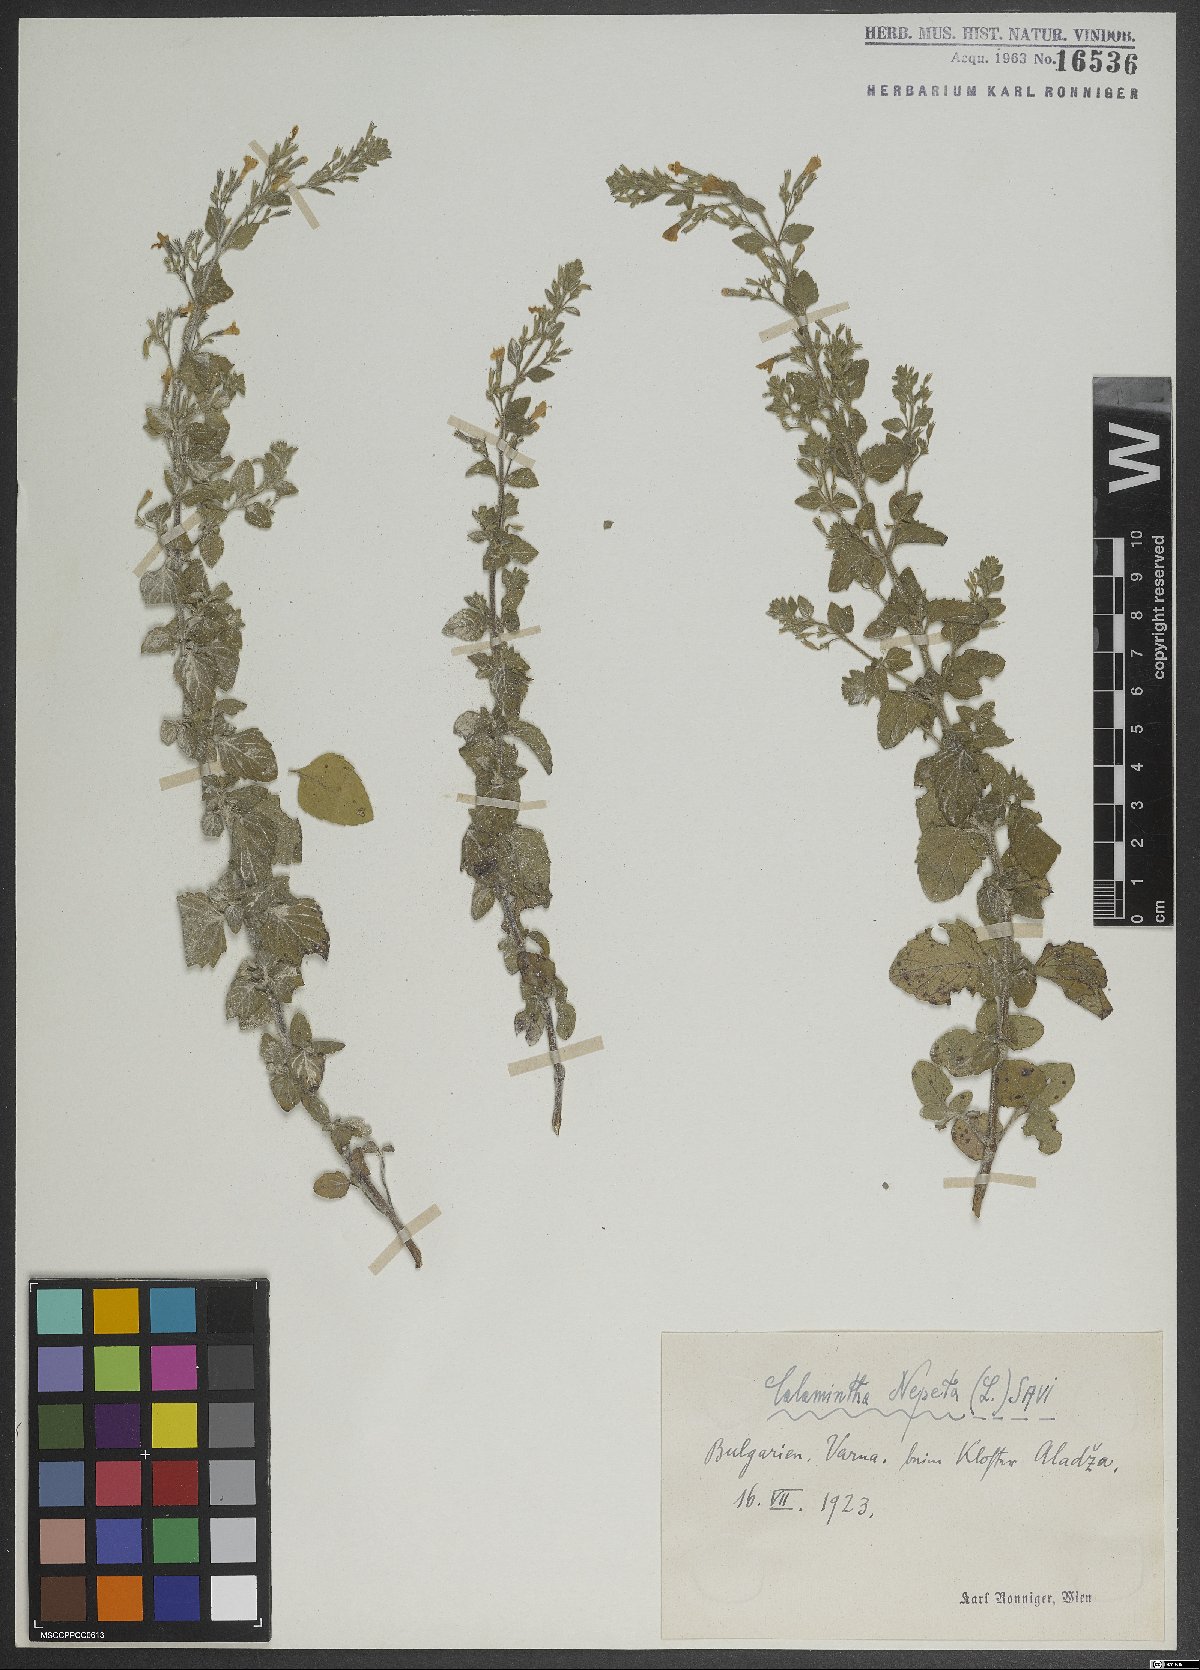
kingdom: Plantae
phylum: Tracheophyta
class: Magnoliopsida
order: Lamiales
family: Lamiaceae
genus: Clinopodium
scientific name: Clinopodium nepeta
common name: Lesser calamint
